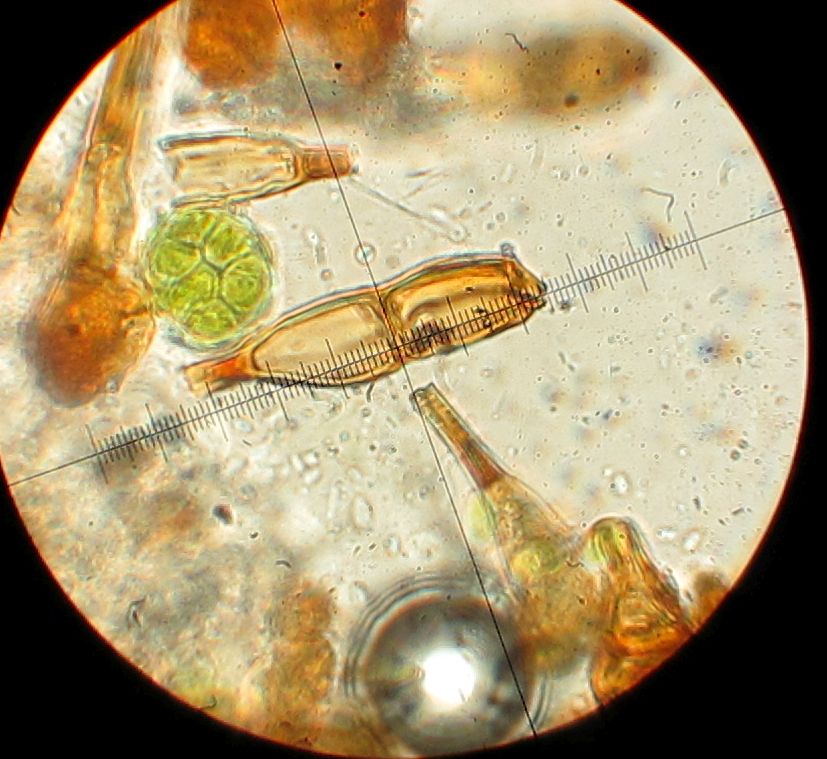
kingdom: Fungi
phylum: Basidiomycota
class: Pucciniomycetes
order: Pucciniales
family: Pucciniaceae
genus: Puccinia
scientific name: Puccinia
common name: tvecellerust
